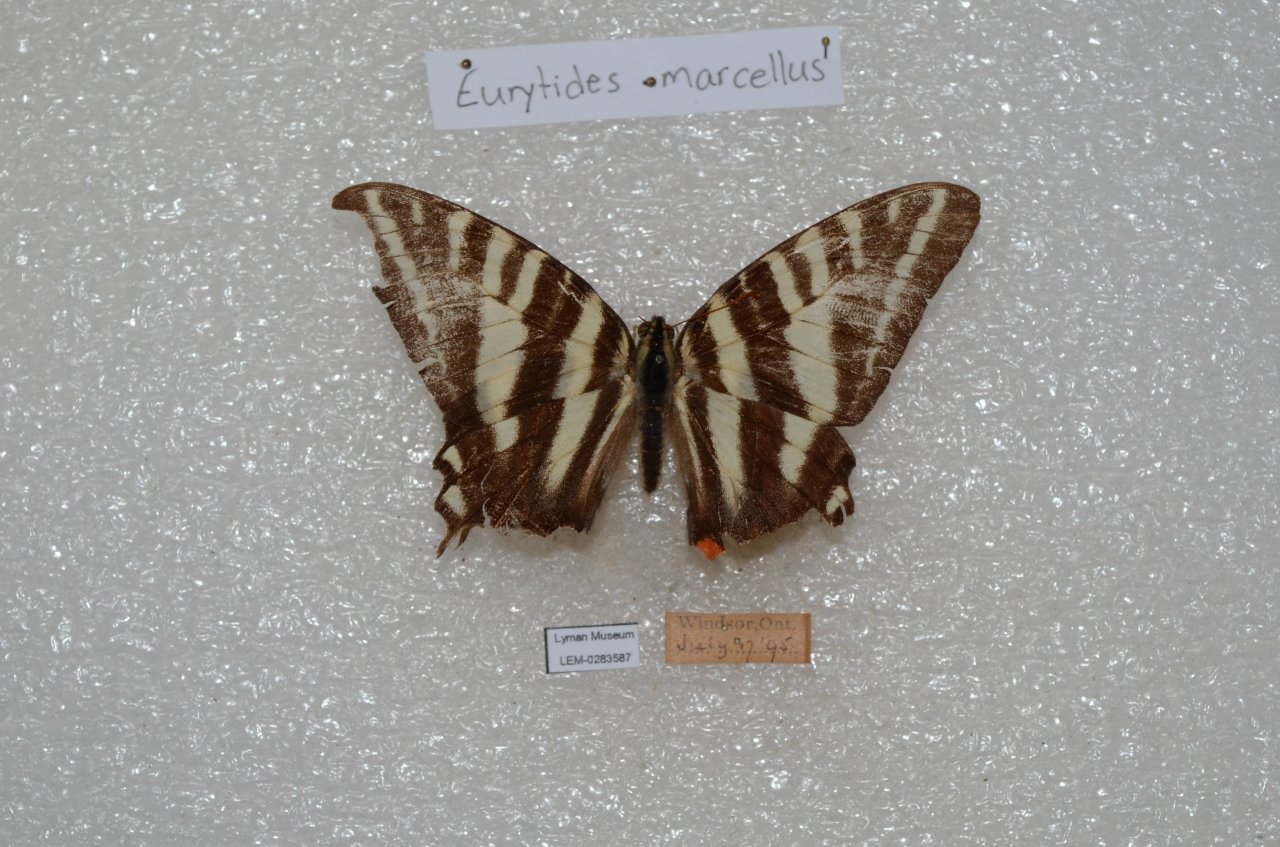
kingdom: Animalia
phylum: Arthropoda
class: Insecta
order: Lepidoptera
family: Papilionidae
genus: Protographium
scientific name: Protographium marcellus
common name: Zebra Swallowtail
